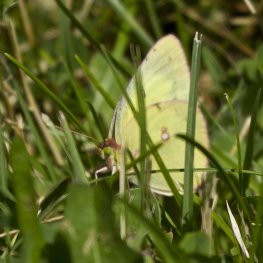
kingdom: Animalia
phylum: Arthropoda
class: Insecta
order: Lepidoptera
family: Pieridae
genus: Colias
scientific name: Colias philodice
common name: Clouded Sulphur
